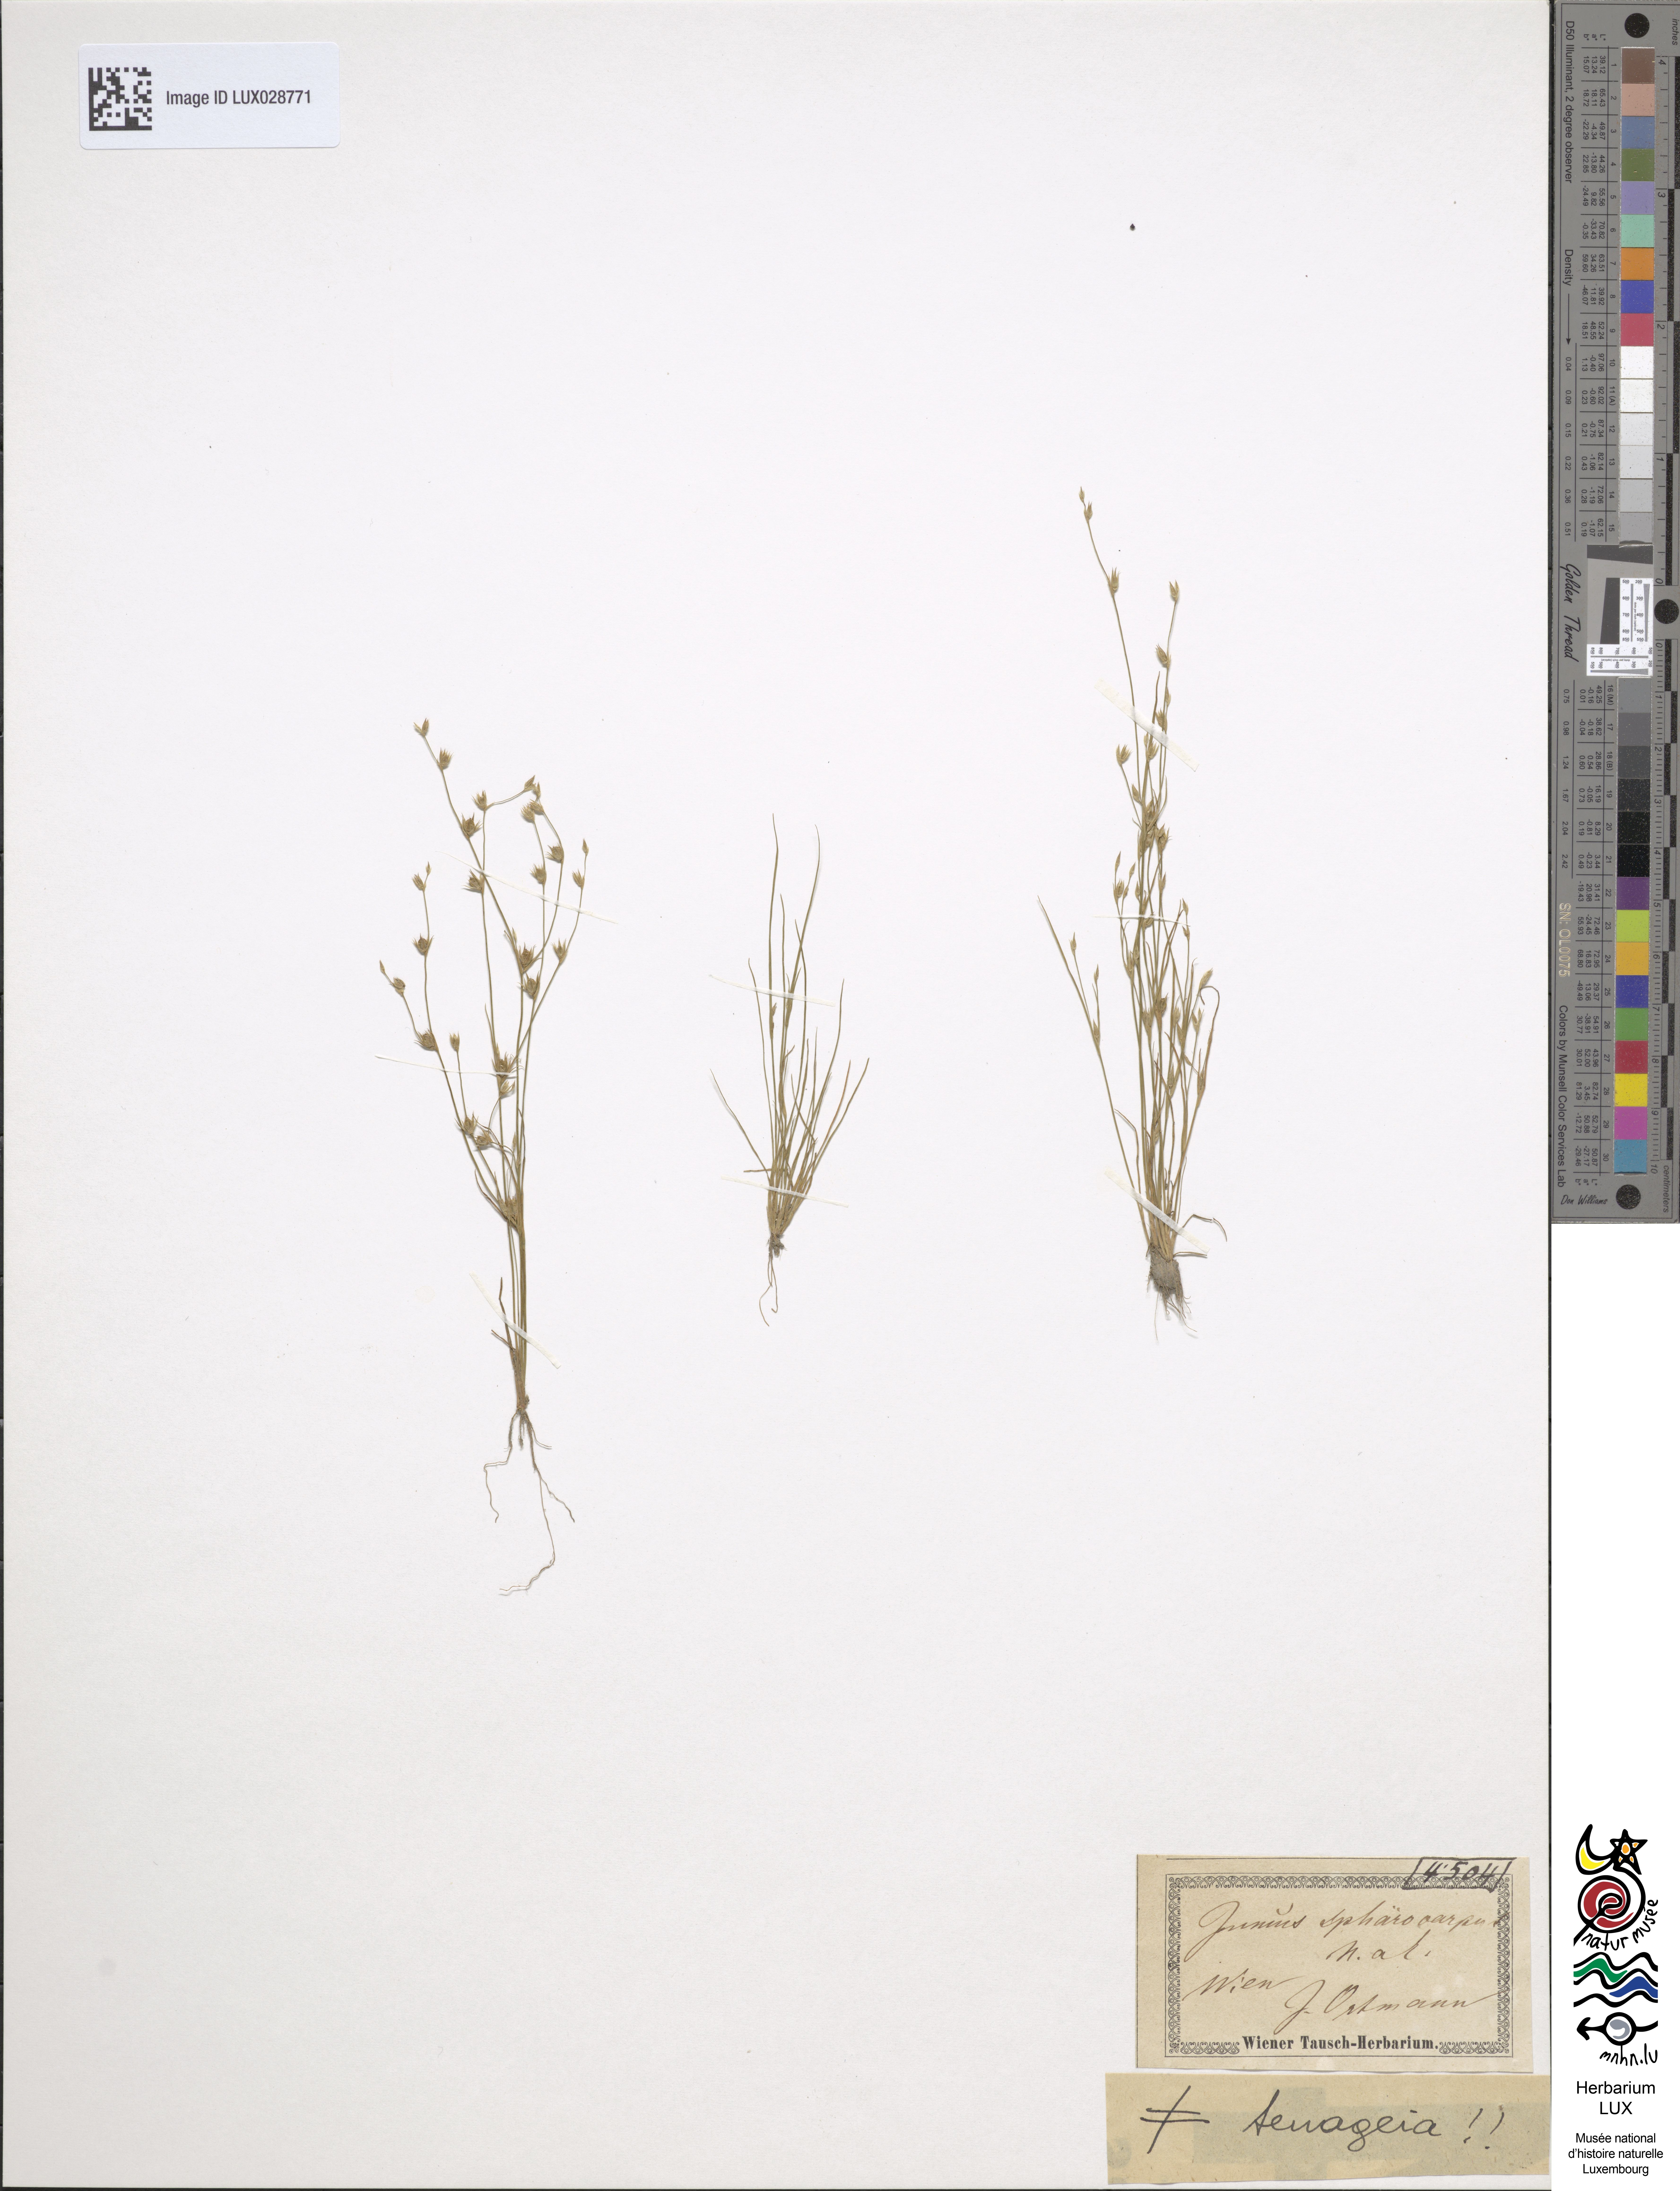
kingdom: Plantae
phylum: Tracheophyta
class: Liliopsida
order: Poales
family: Juncaceae
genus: Juncus
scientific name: Juncus sphaerocarpus
